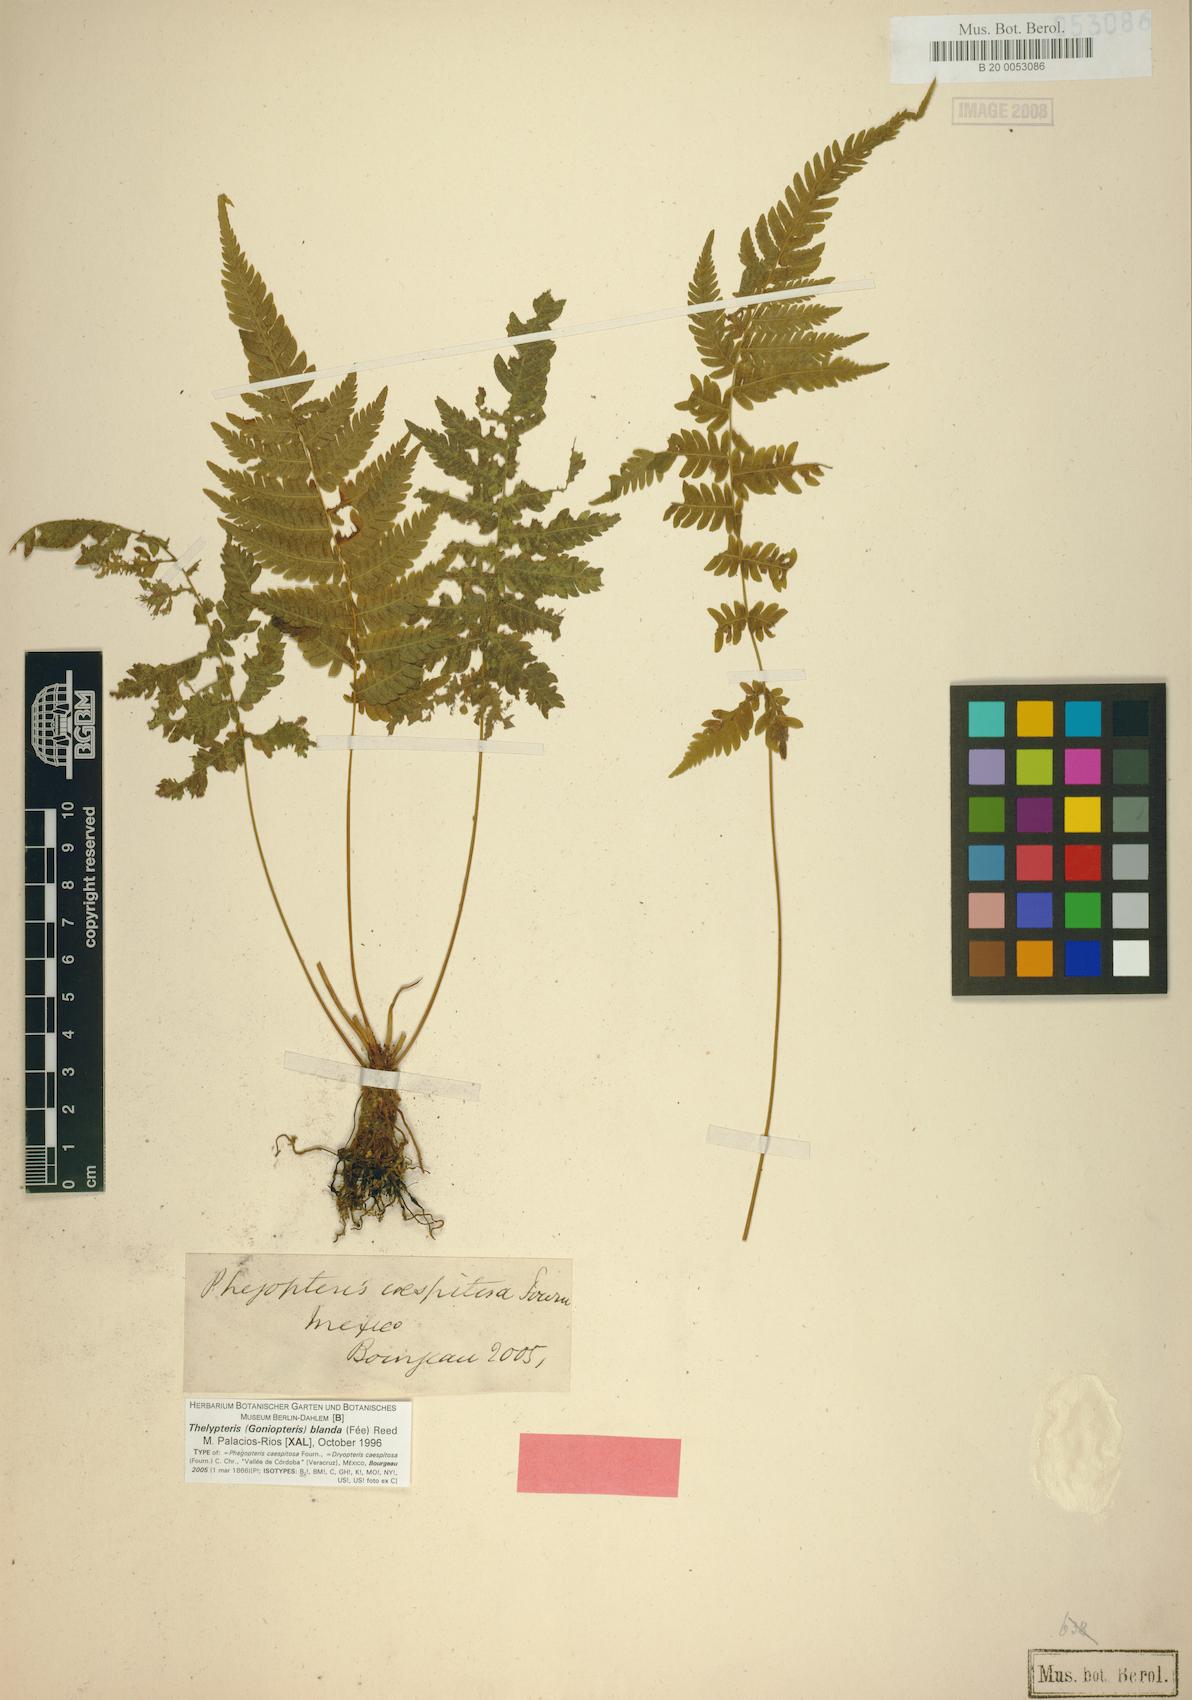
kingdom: Plantae
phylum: Tracheophyta
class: Polypodiopsida
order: Polypodiales
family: Thelypteridaceae
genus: Goniopteris
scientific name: Goniopteris blanda
